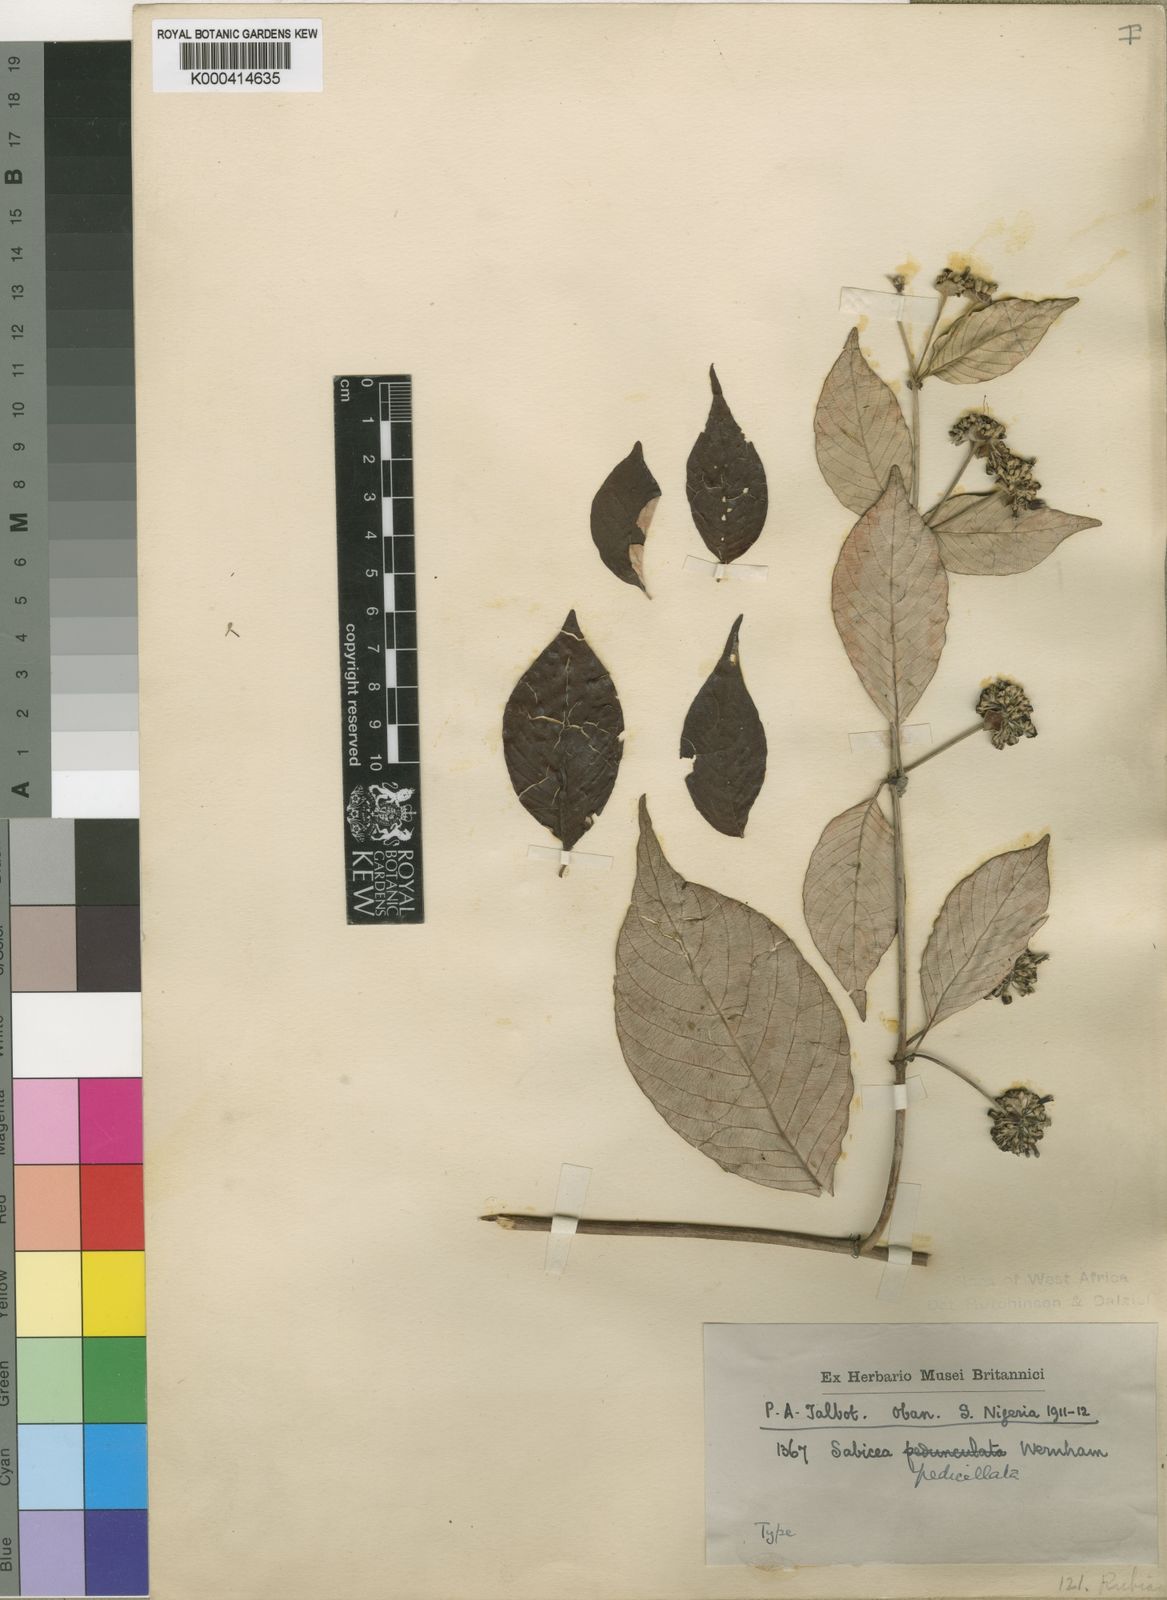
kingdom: Plantae
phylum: Tracheophyta
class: Magnoliopsida
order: Gentianales
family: Rubiaceae
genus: Sabicea
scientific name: Sabicea
